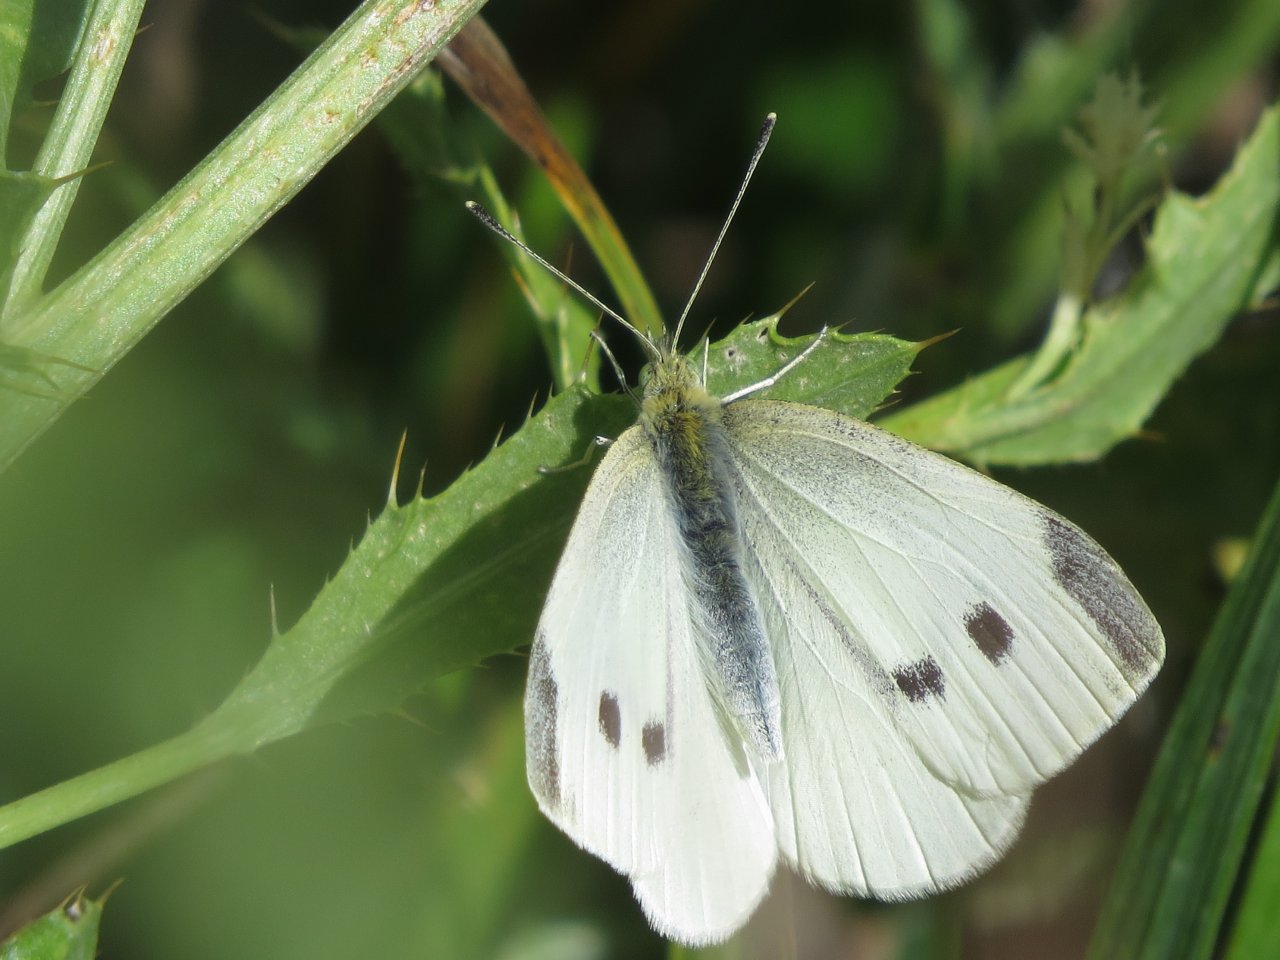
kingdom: Animalia
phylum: Arthropoda
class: Insecta
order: Lepidoptera
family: Pieridae
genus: Pieris
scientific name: Pieris rapae
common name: Cabbage White
